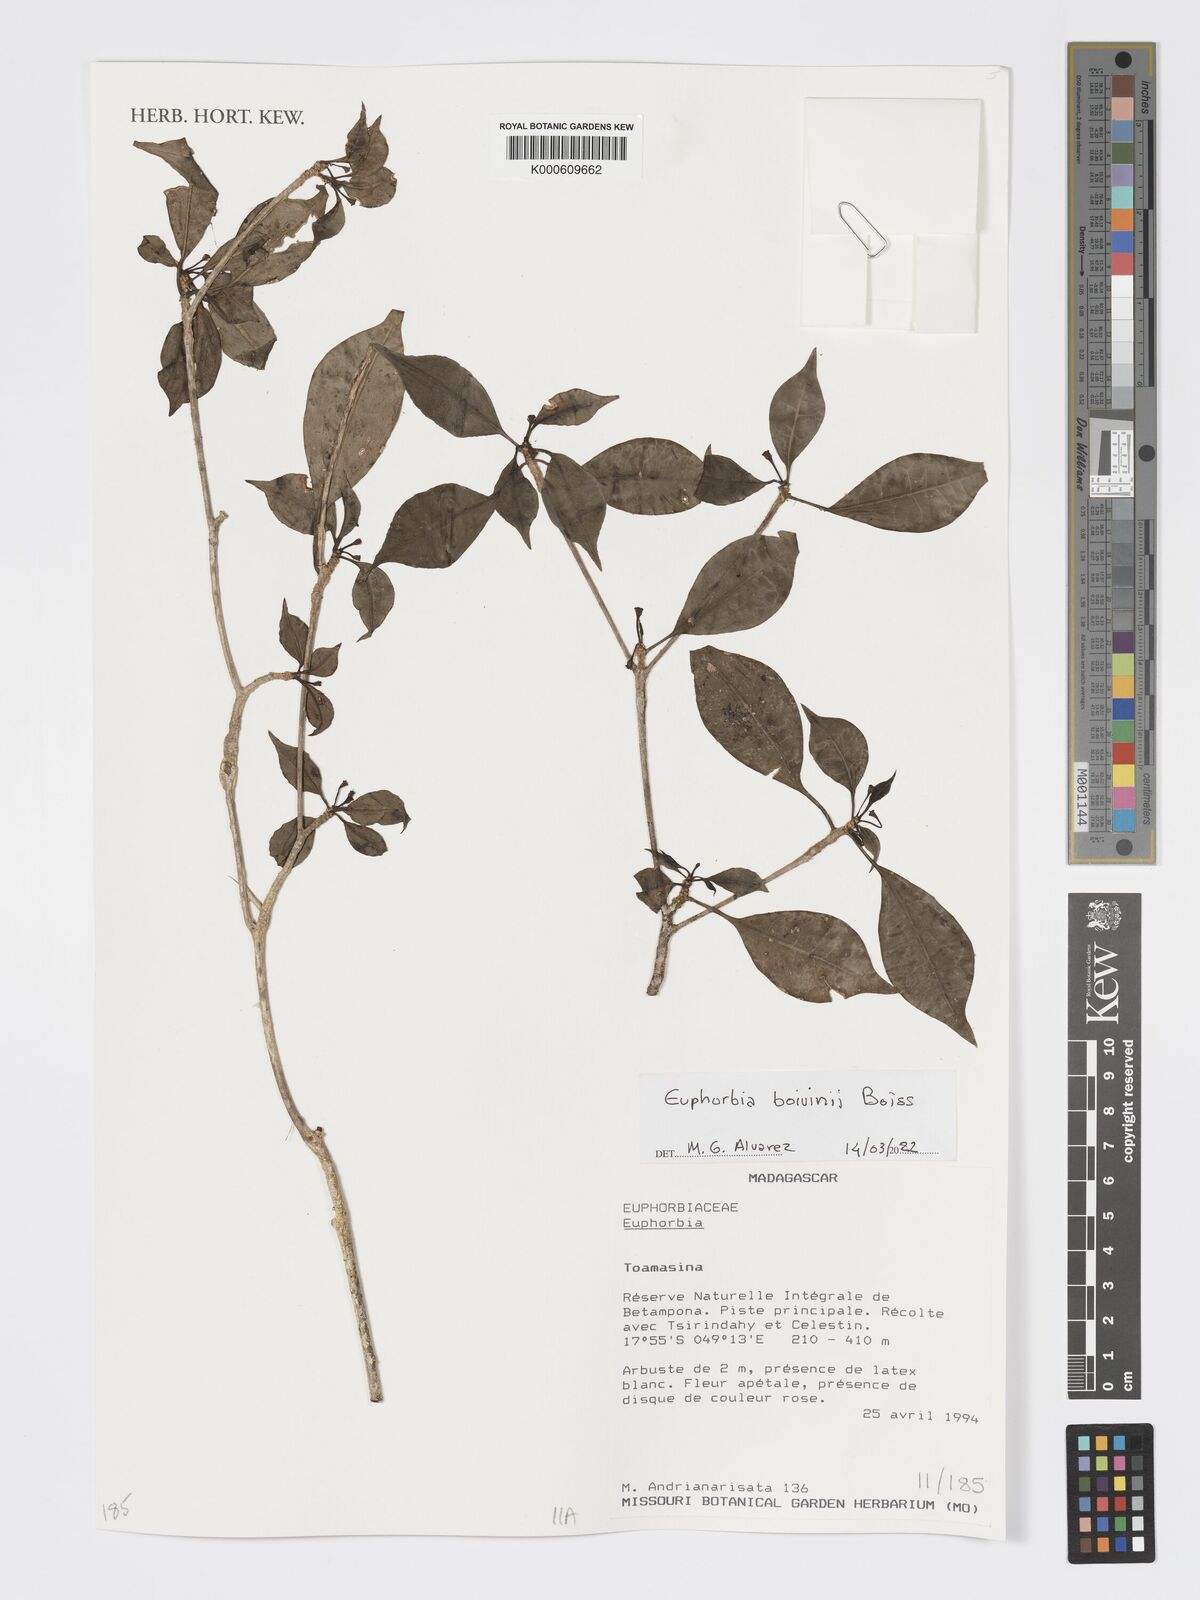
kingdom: Plantae
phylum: Tracheophyta
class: Magnoliopsida
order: Malpighiales
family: Euphorbiaceae
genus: Euphorbia
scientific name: Euphorbia boivinii
